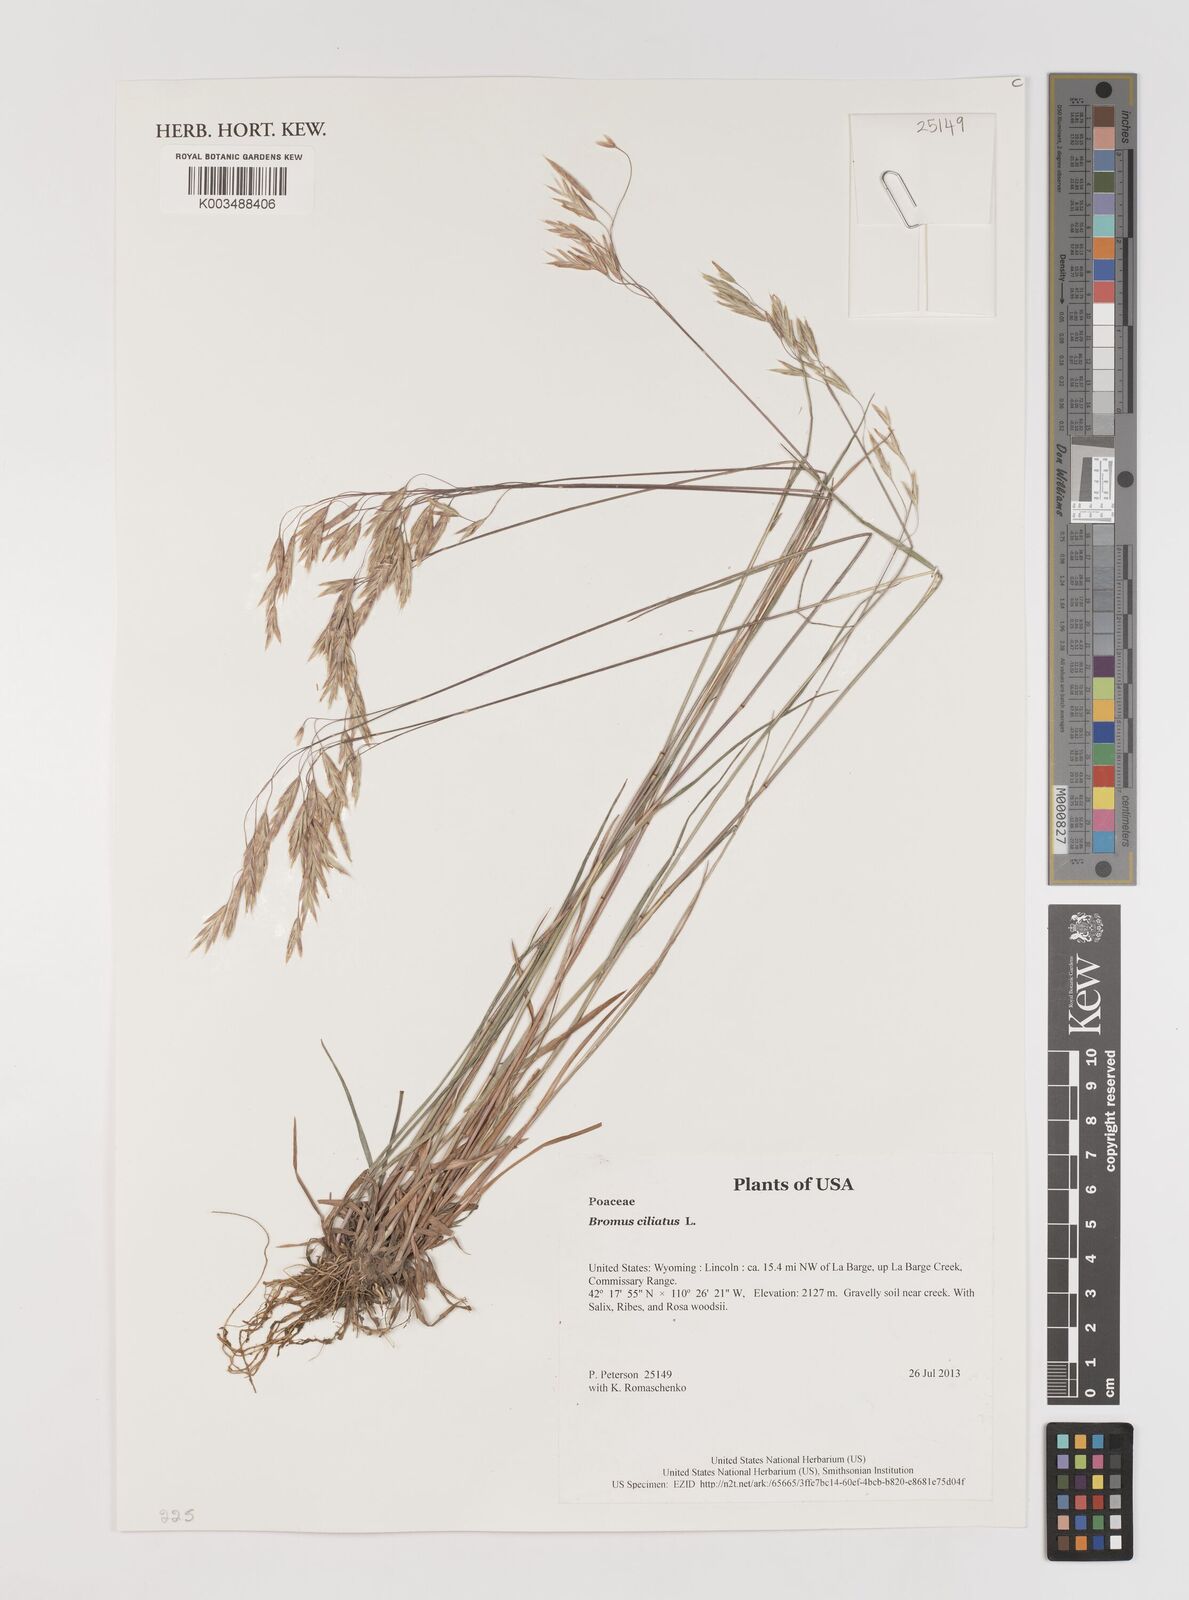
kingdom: Plantae
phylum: Tracheophyta
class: Liliopsida
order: Poales
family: Poaceae
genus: Bromus
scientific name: Bromus ciliatus
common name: Fringe brome
